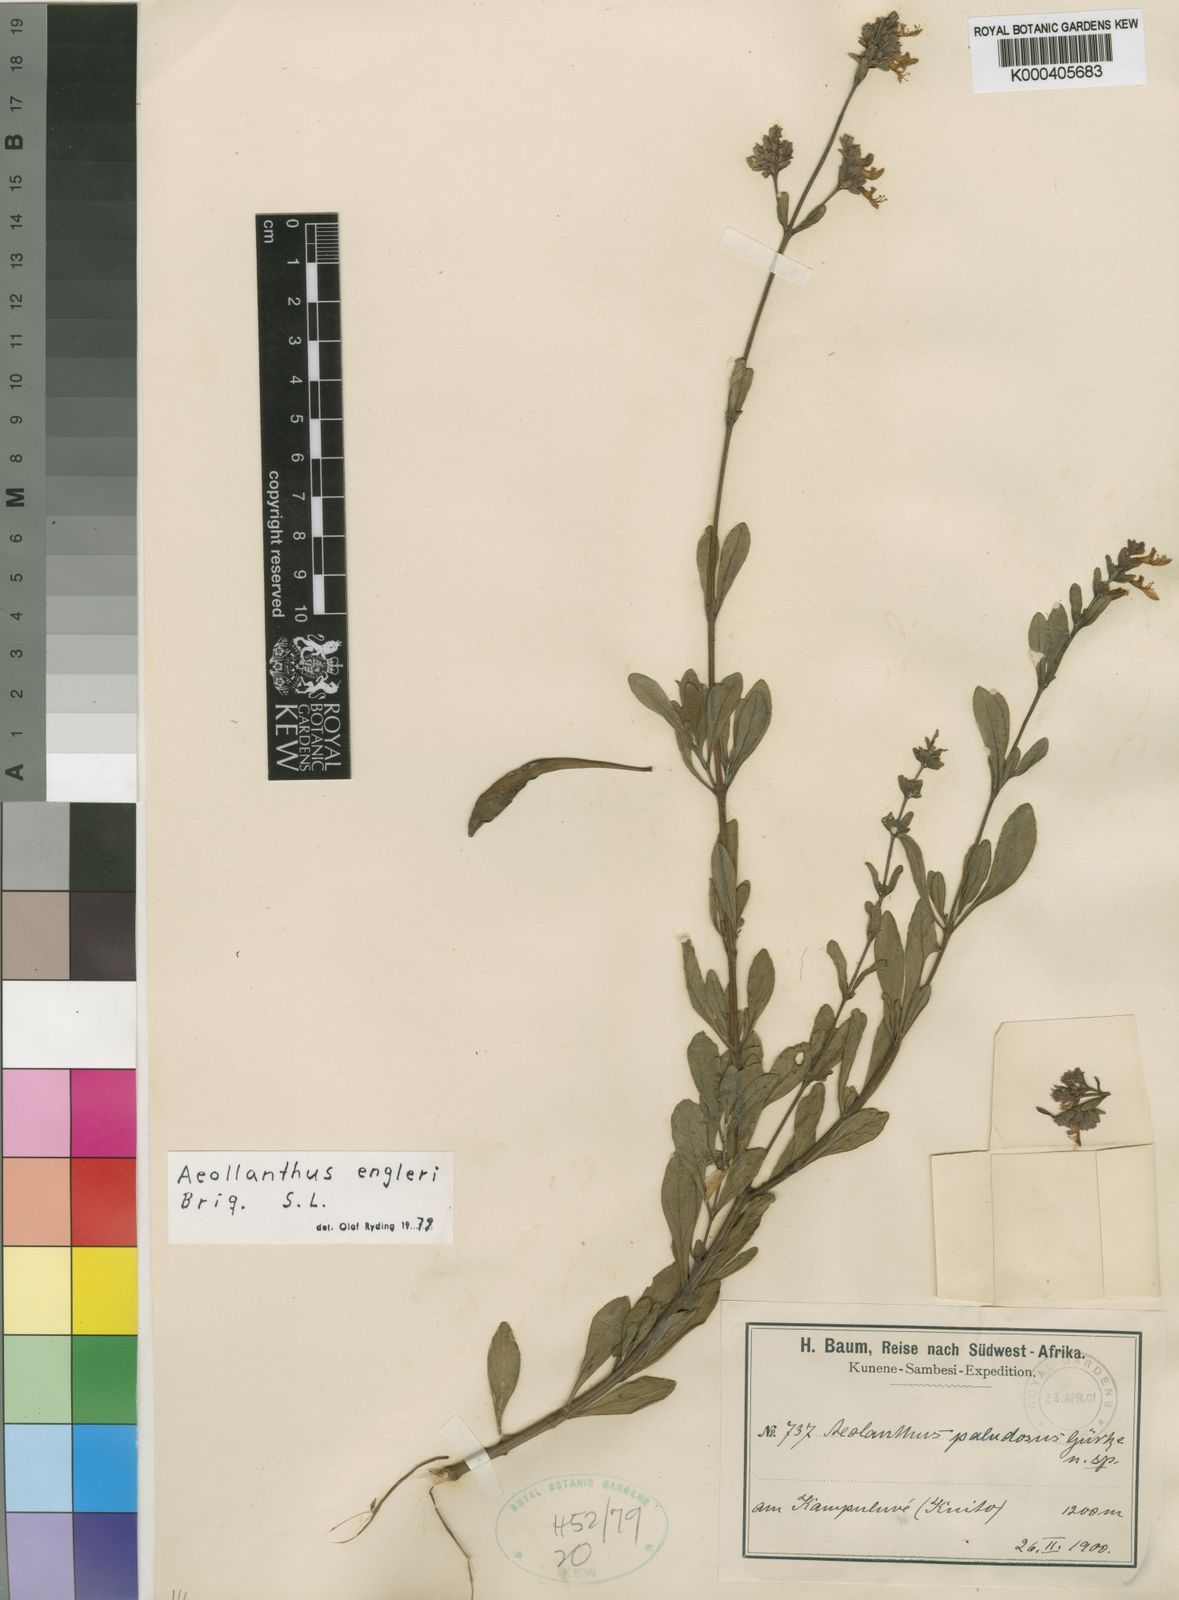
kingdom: Plantae
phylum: Tracheophyta
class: Magnoliopsida
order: Lamiales
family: Lamiaceae
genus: Aeollanthus
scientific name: Aeollanthus engleri
